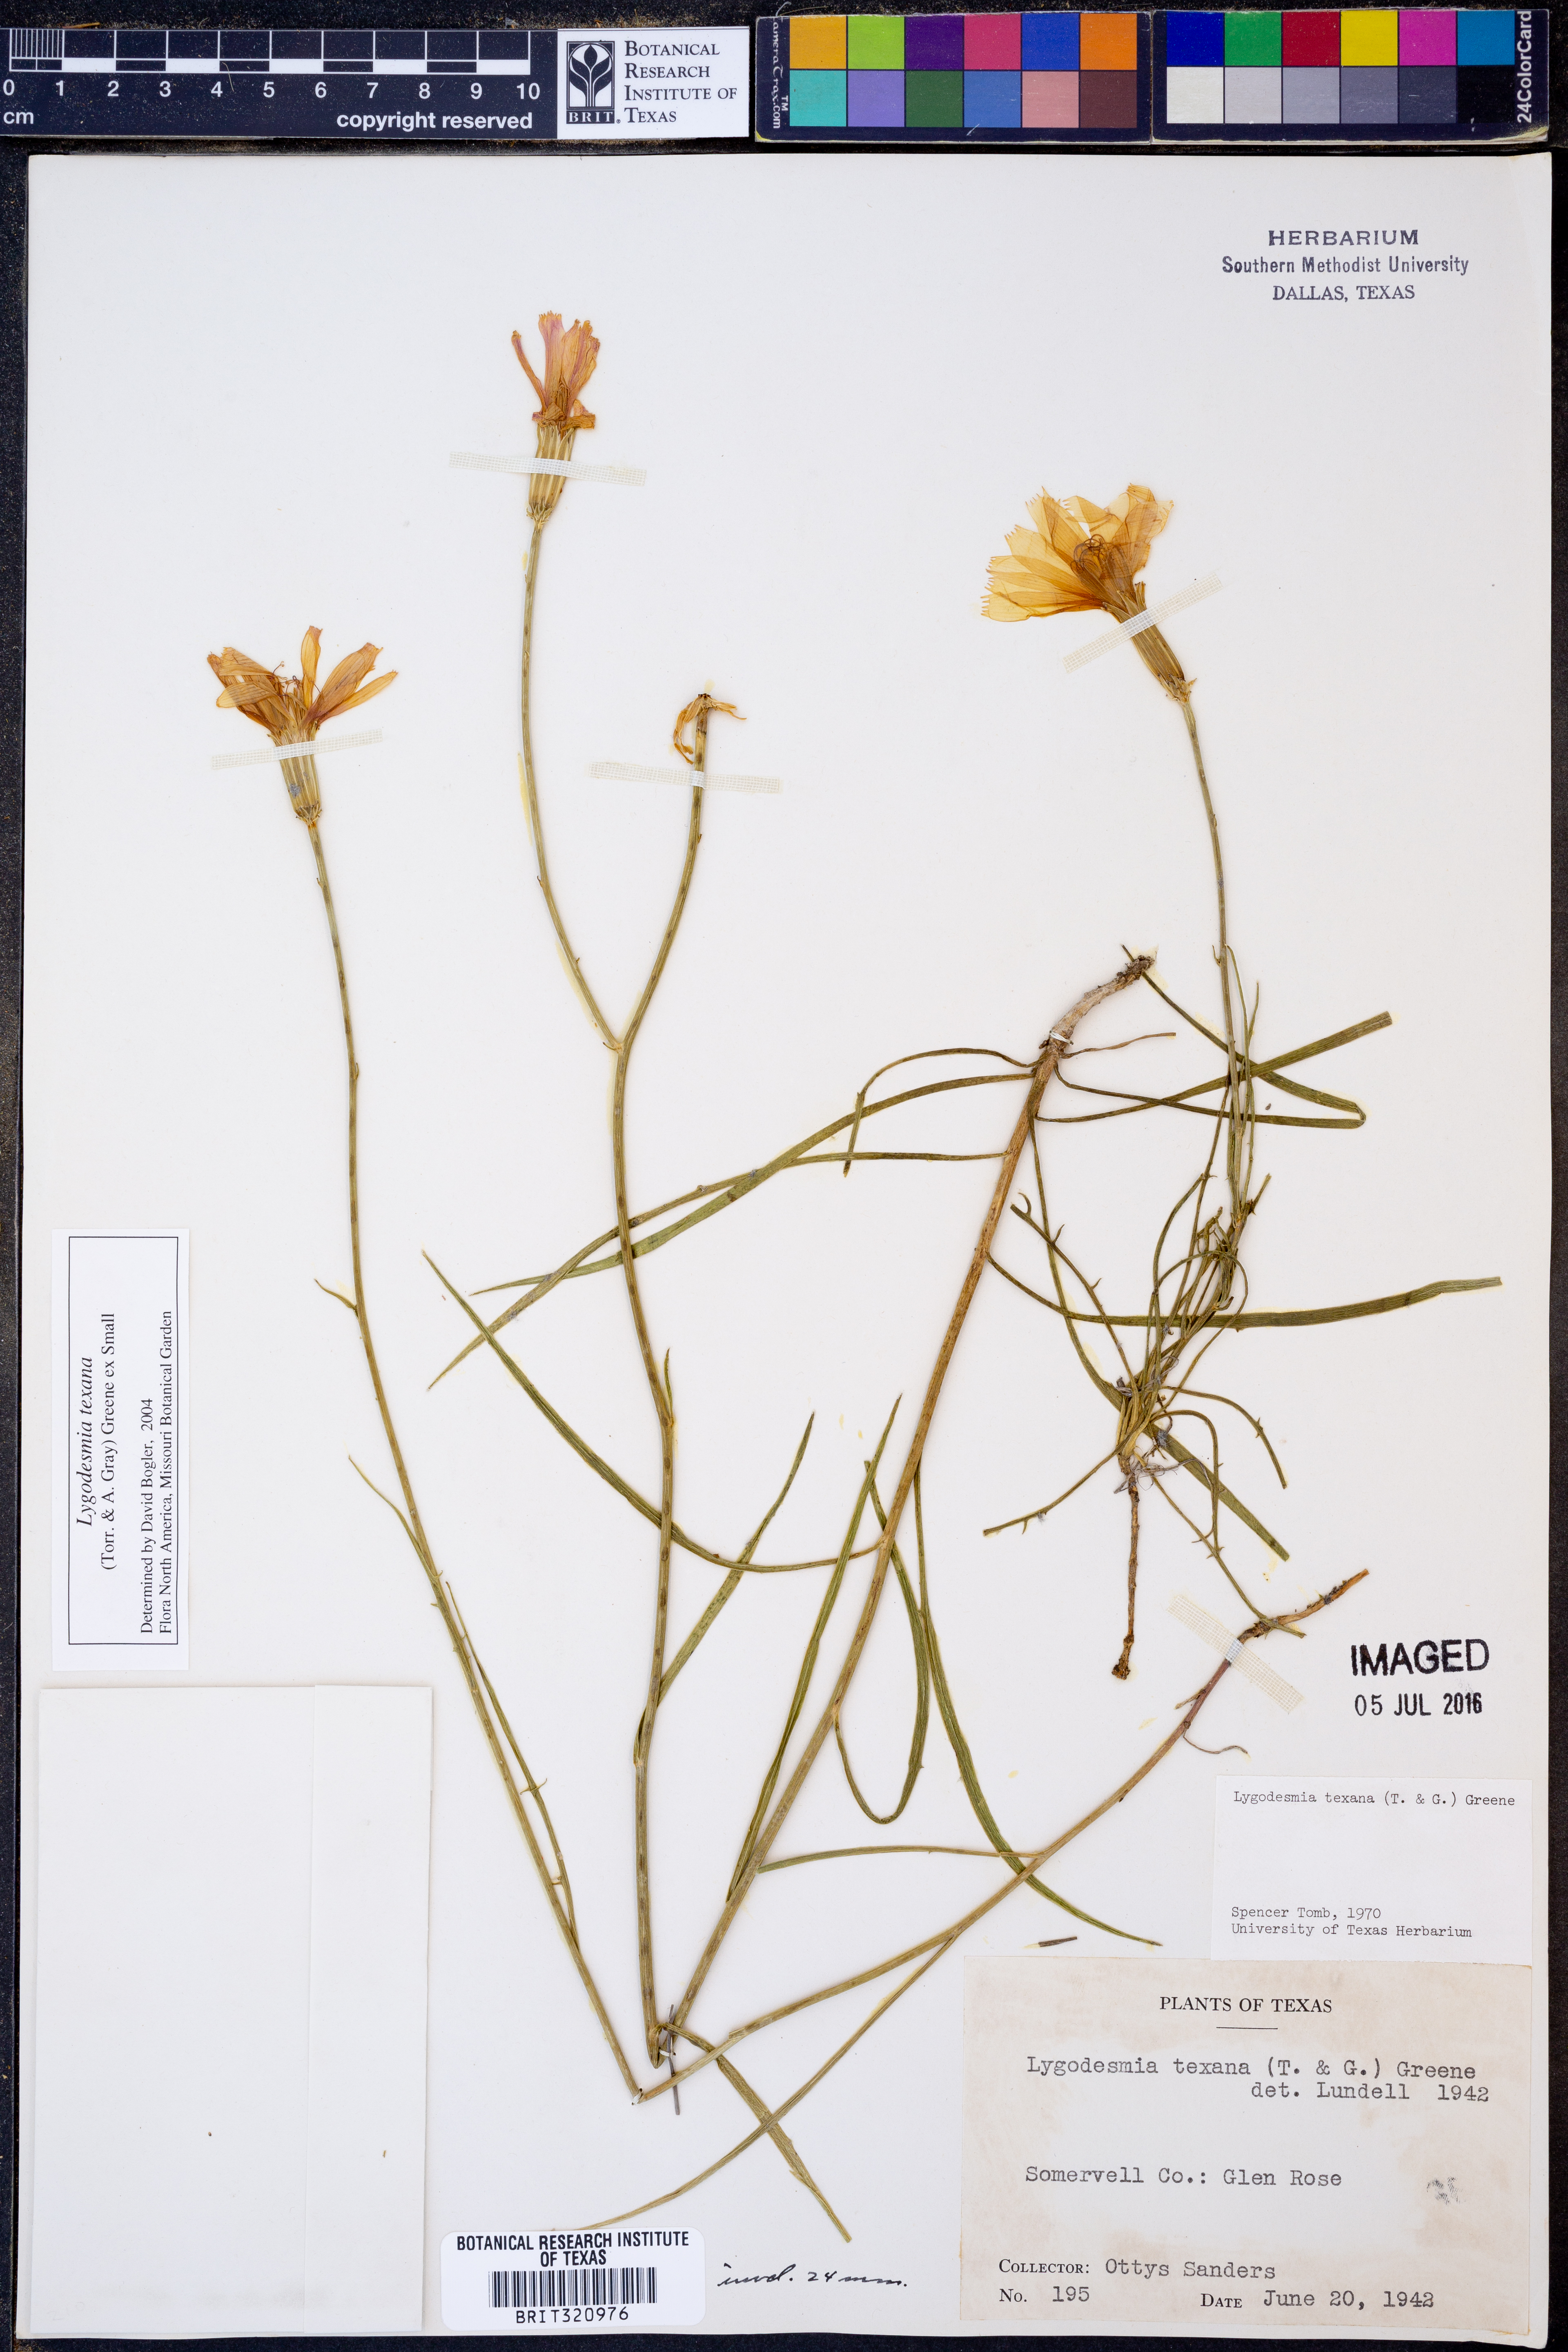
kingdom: Plantae
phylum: Tracheophyta
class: Magnoliopsida
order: Asterales
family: Asteraceae
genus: Lygodesmia
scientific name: Lygodesmia texana
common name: Texas skeleton-plant
